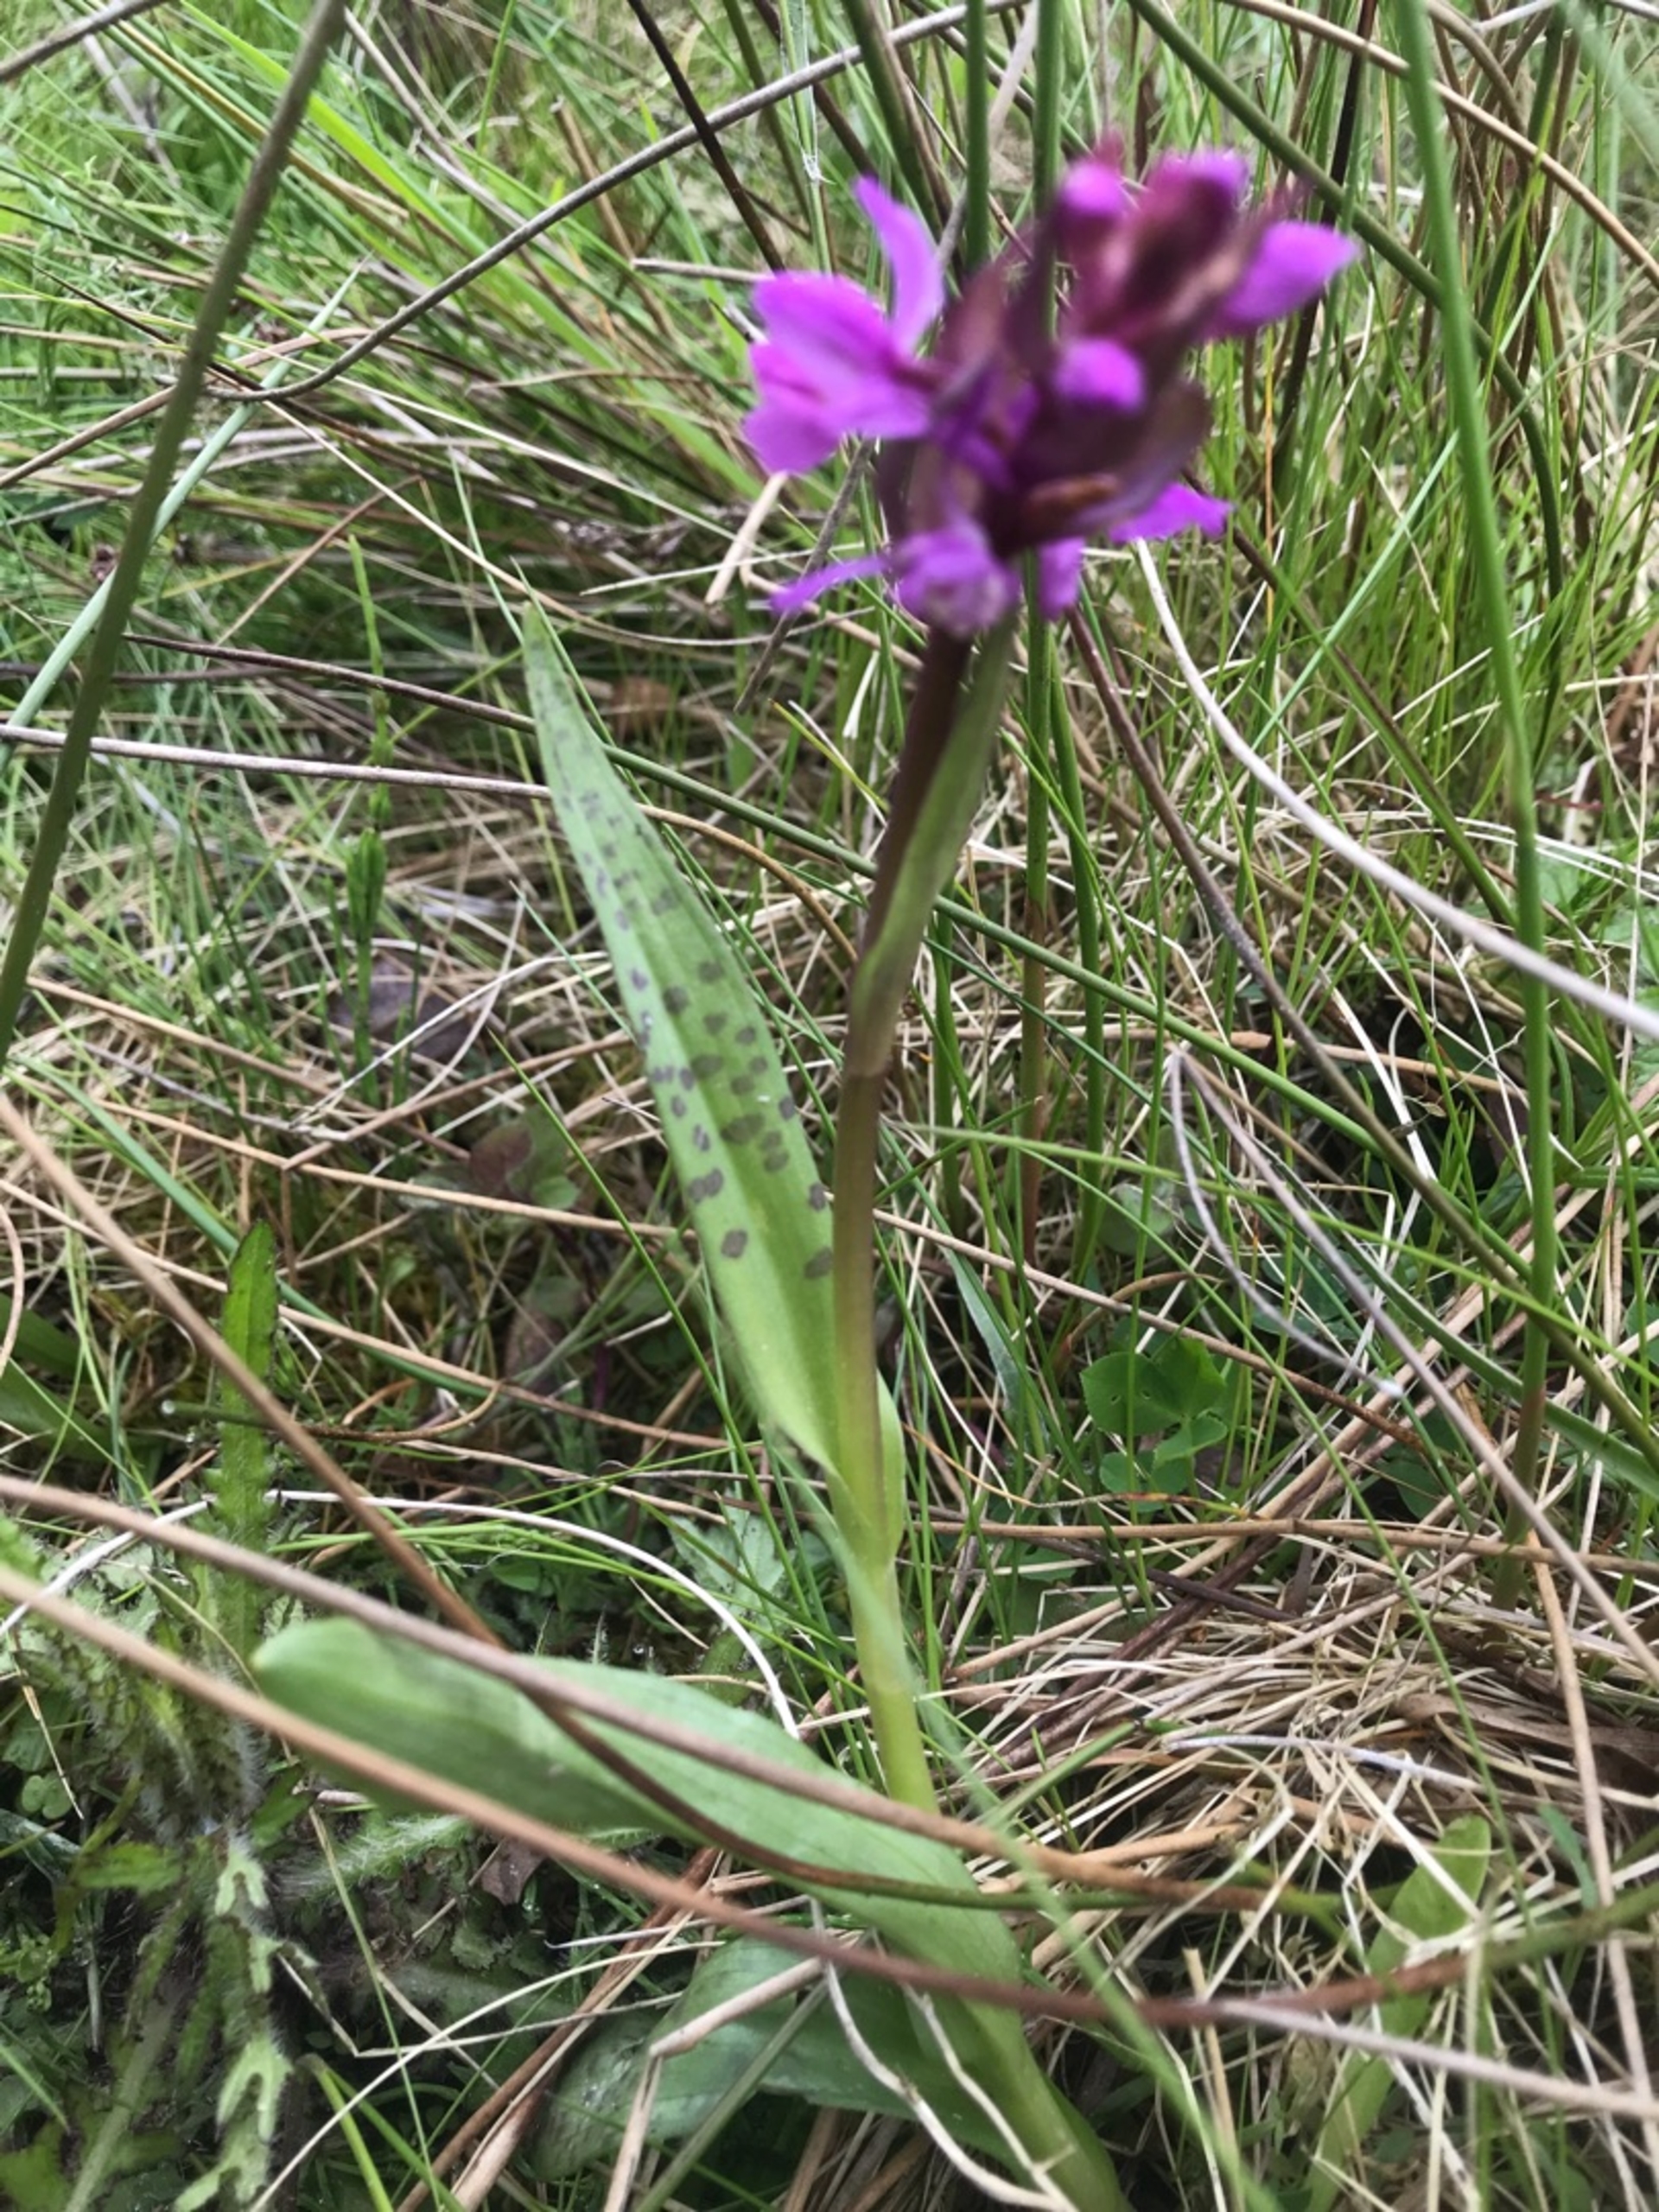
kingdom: Plantae
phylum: Tracheophyta
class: Liliopsida
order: Asparagales
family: Orchidaceae
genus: Dactylorhiza
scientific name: Dactylorhiza majalis
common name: Maj-gøgeurt
